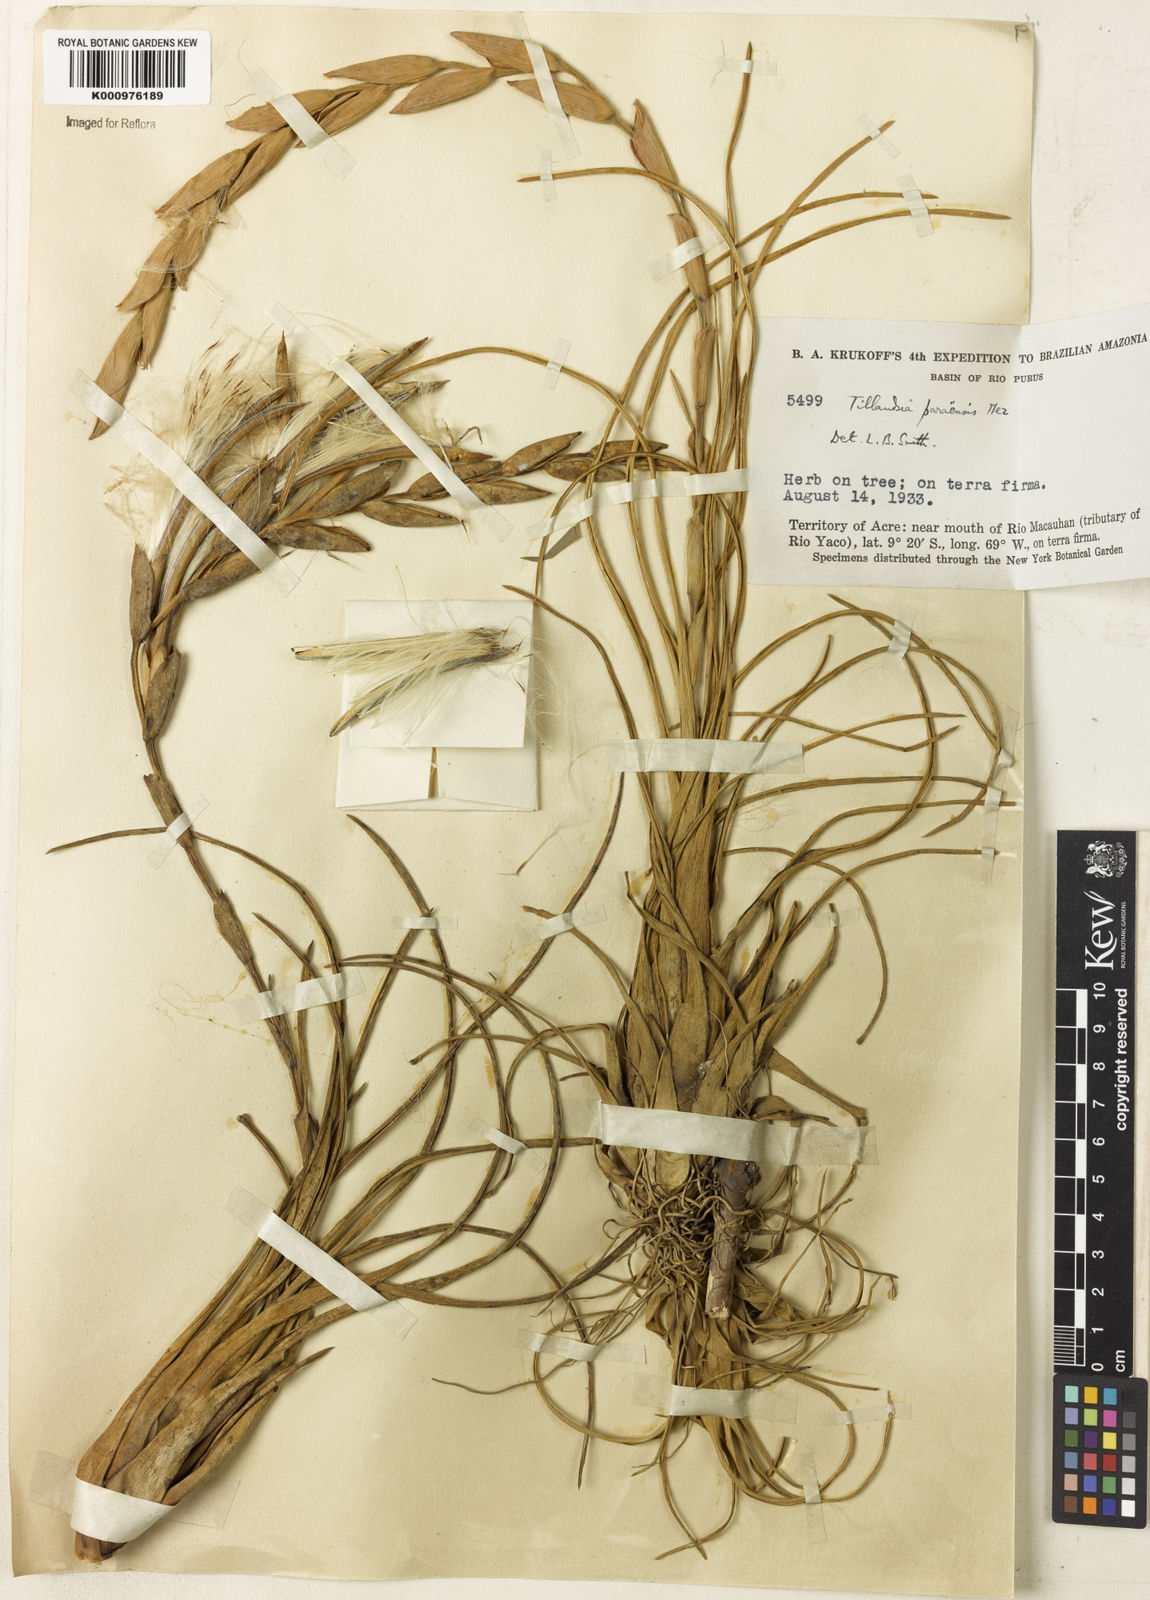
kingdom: Plantae
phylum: Tracheophyta
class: Liliopsida
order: Poales
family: Bromeliaceae
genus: Tillandsia
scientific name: Tillandsia paraensis
